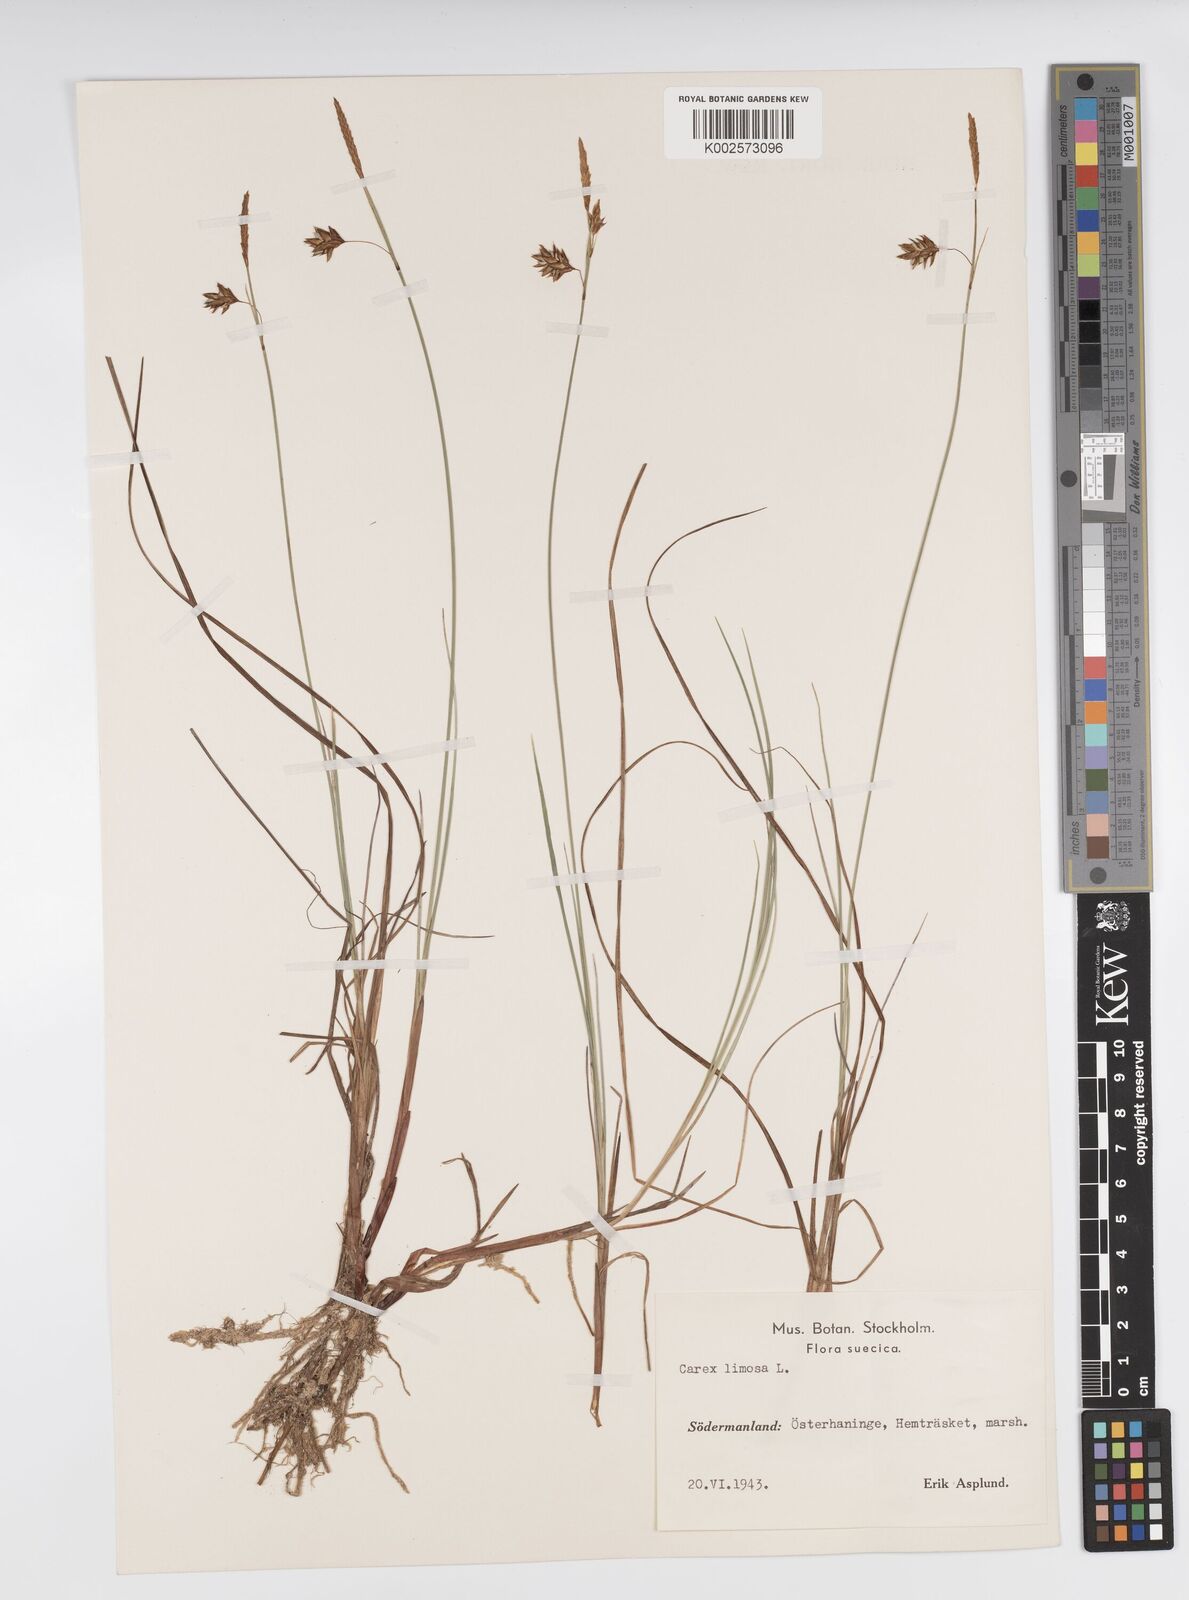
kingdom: Plantae
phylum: Tracheophyta
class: Liliopsida
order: Poales
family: Cyperaceae
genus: Carex
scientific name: Carex limosa
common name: Bog sedge
